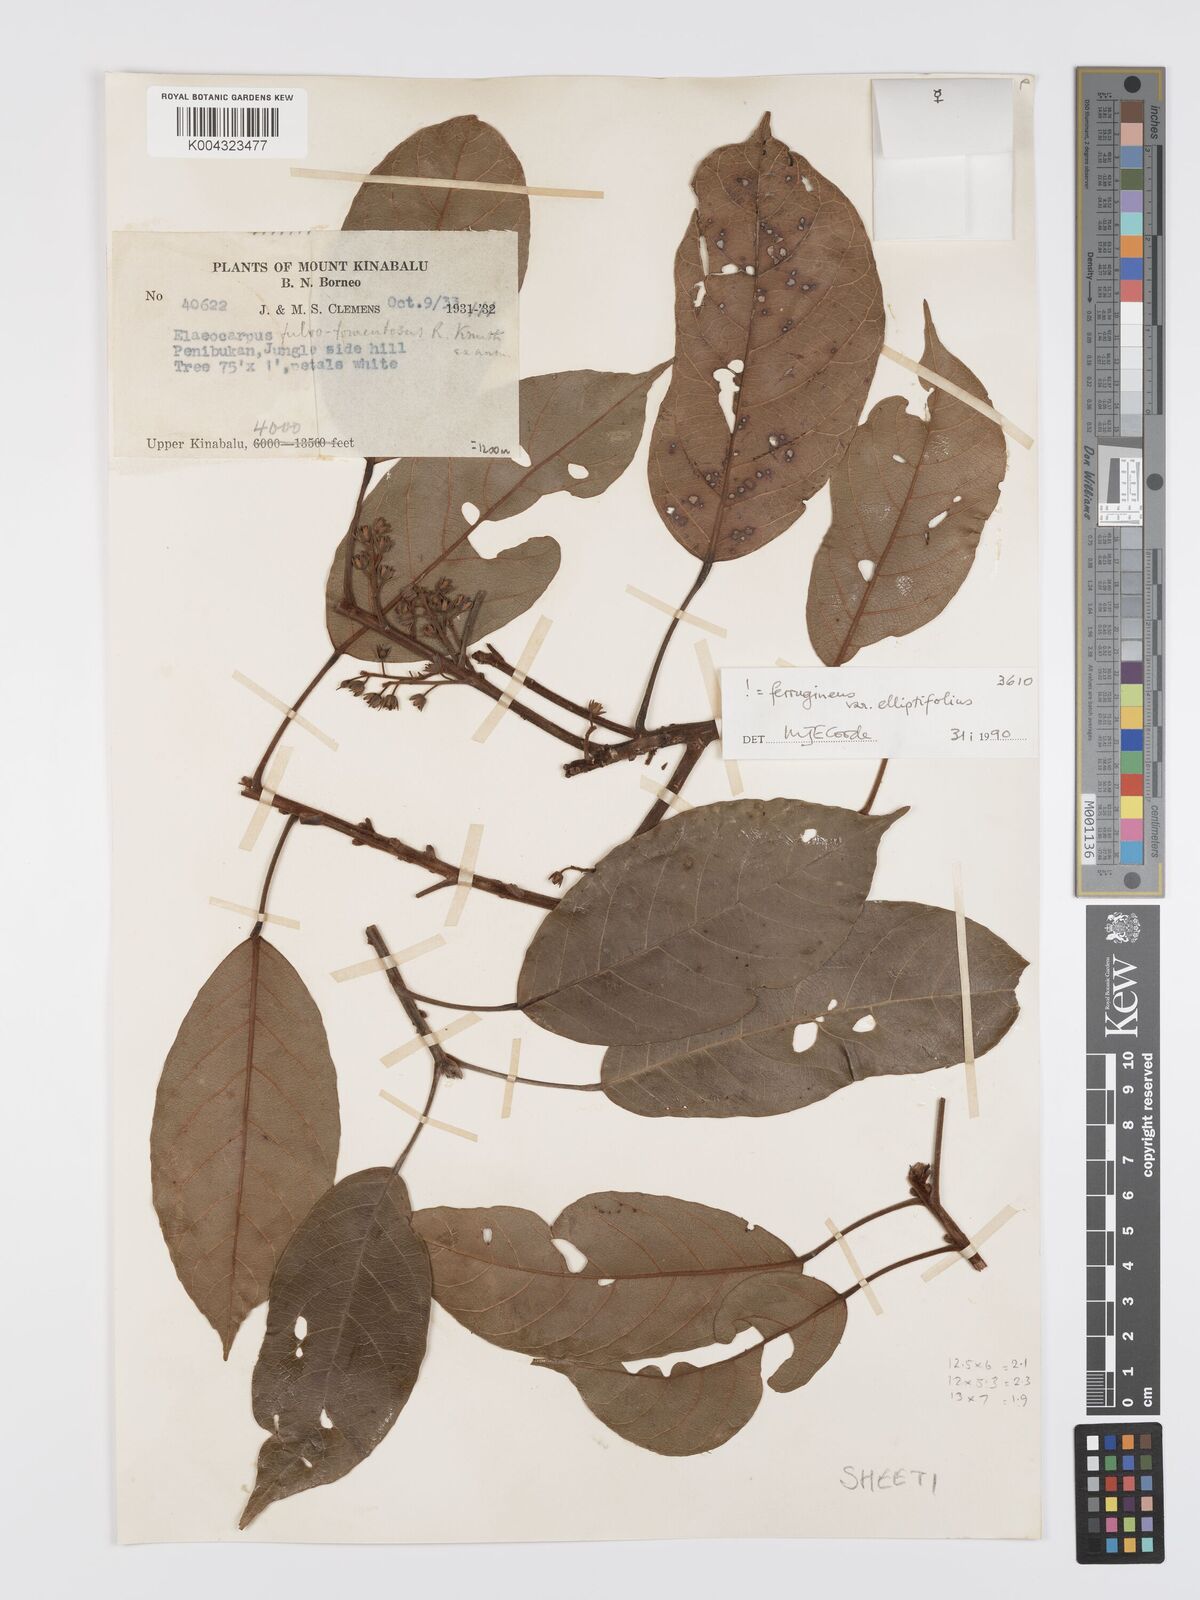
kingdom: Plantae
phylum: Tracheophyta
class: Magnoliopsida
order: Oxalidales
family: Elaeocarpaceae
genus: Elaeocarpus
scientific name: Elaeocarpus ferrugineus
